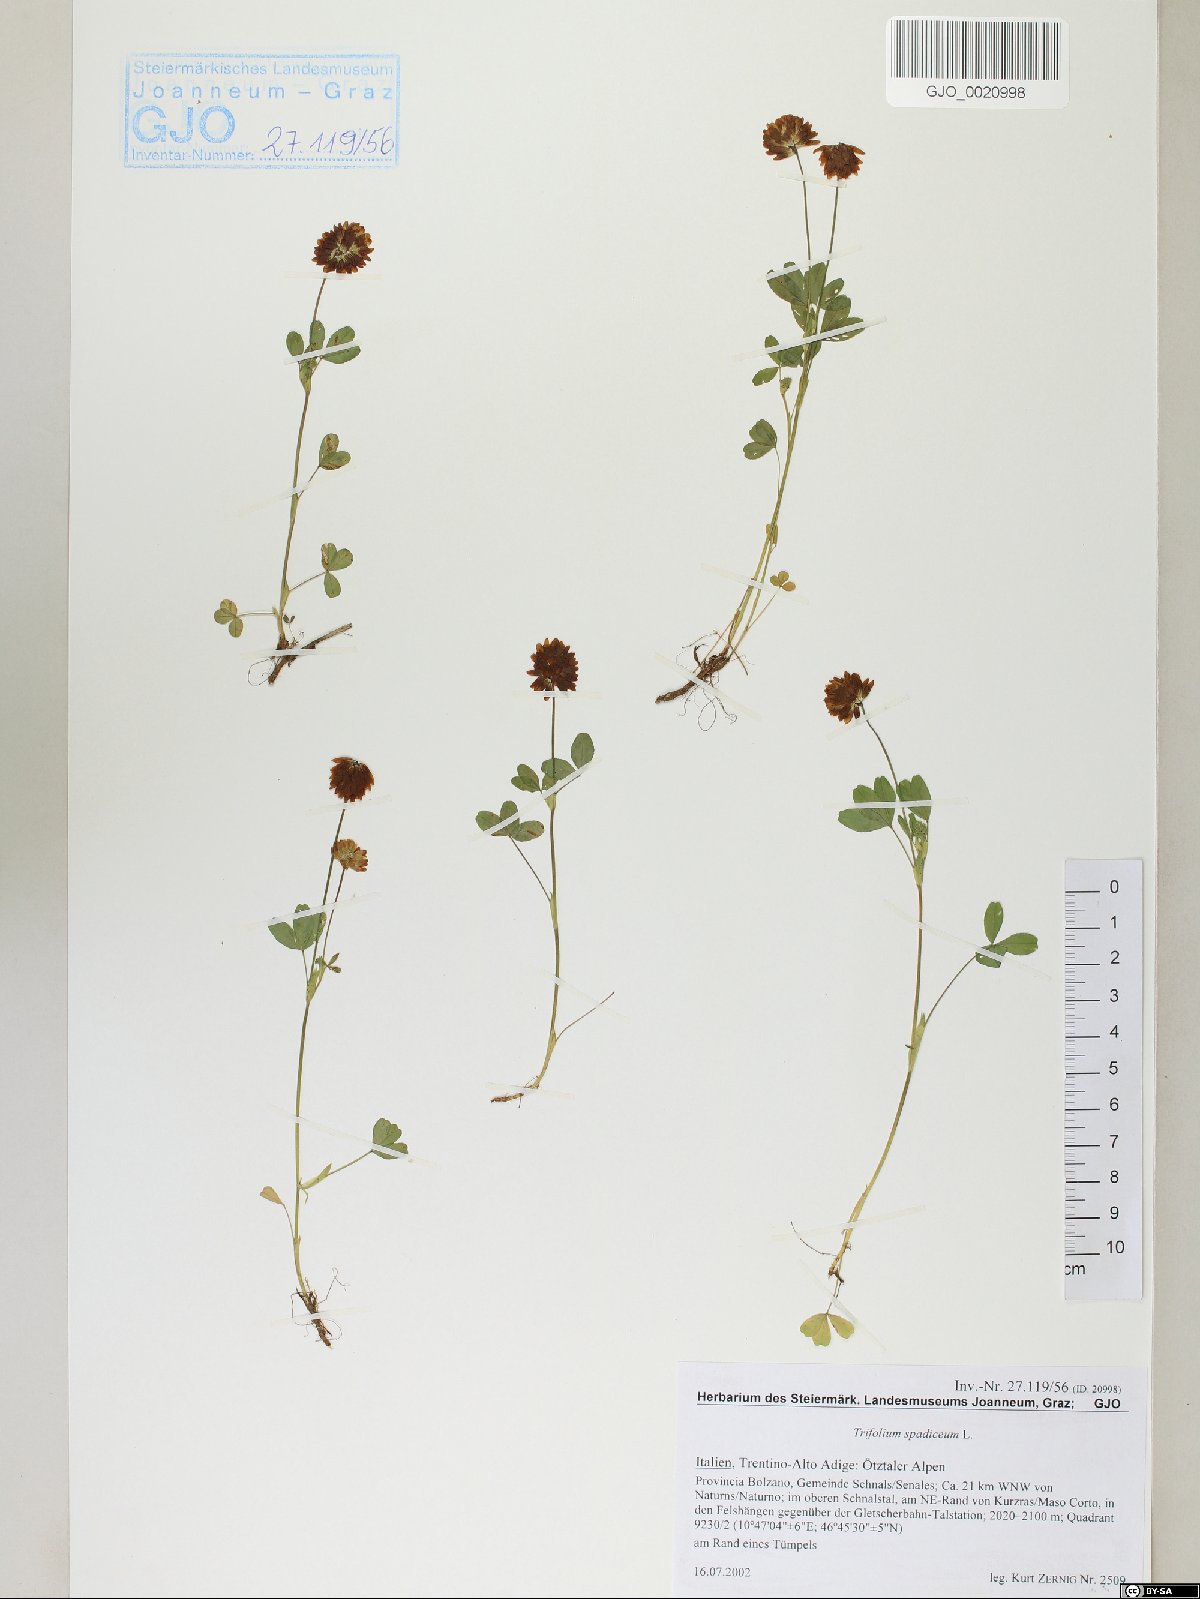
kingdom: Plantae
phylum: Tracheophyta
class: Magnoliopsida
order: Fabales
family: Fabaceae
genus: Trifolium
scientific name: Trifolium spadiceum
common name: Brown moor clover
